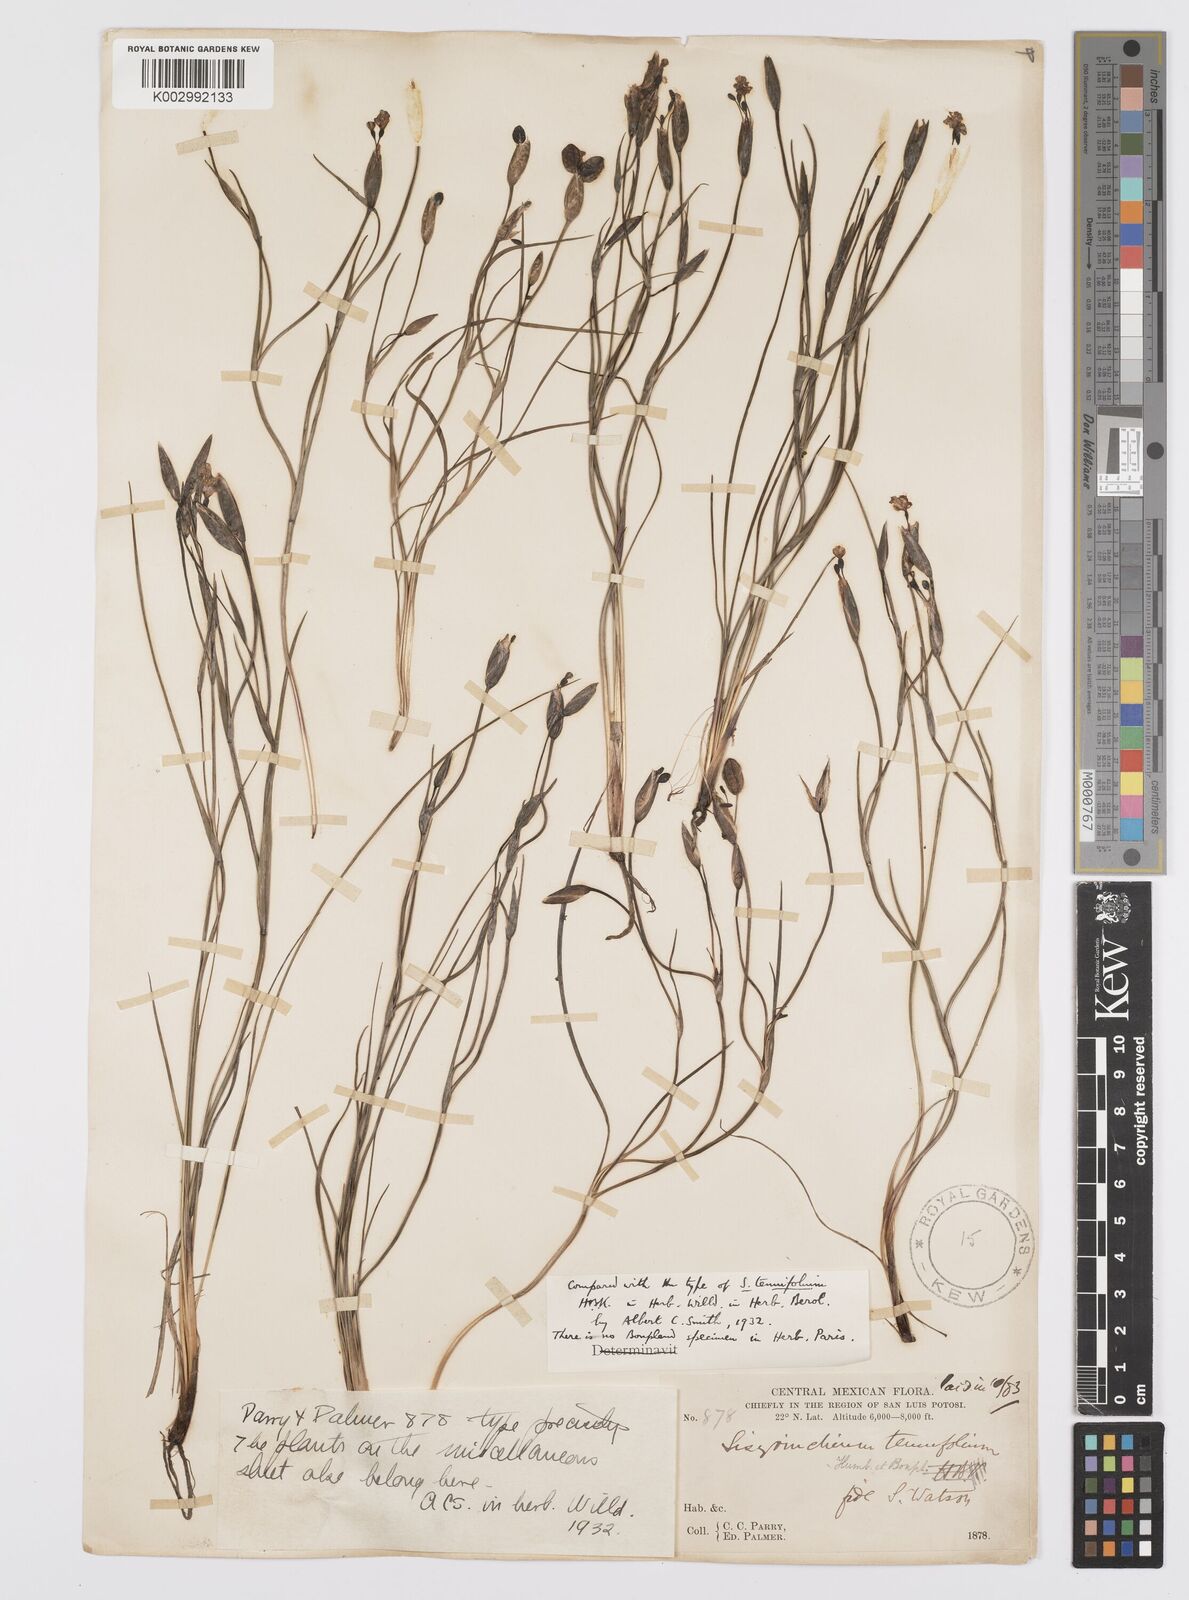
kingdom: Plantae
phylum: Tracheophyta
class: Liliopsida
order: Asparagales
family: Iridaceae
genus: Sisyrinchium
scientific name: Sisyrinchium langloisii
